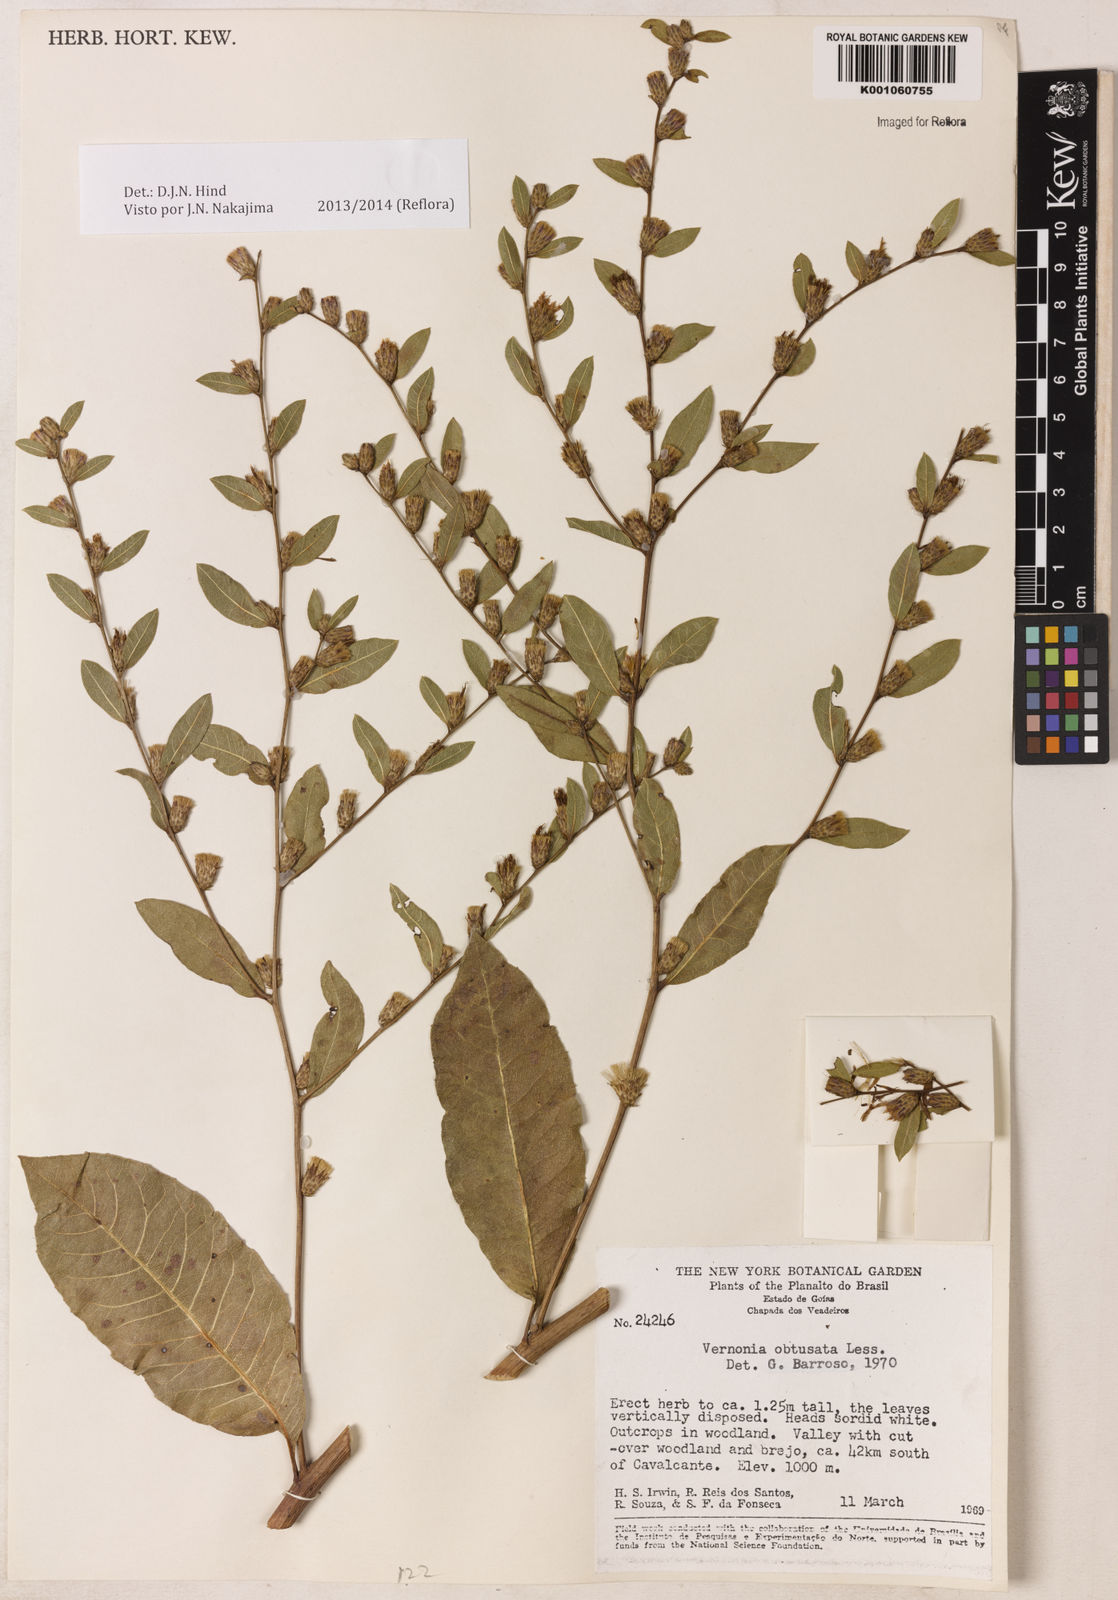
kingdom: Plantae
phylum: Tracheophyta
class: Magnoliopsida
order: Asterales
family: Asteraceae
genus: Lessingianthus
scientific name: Lessingianthus obtusatus
